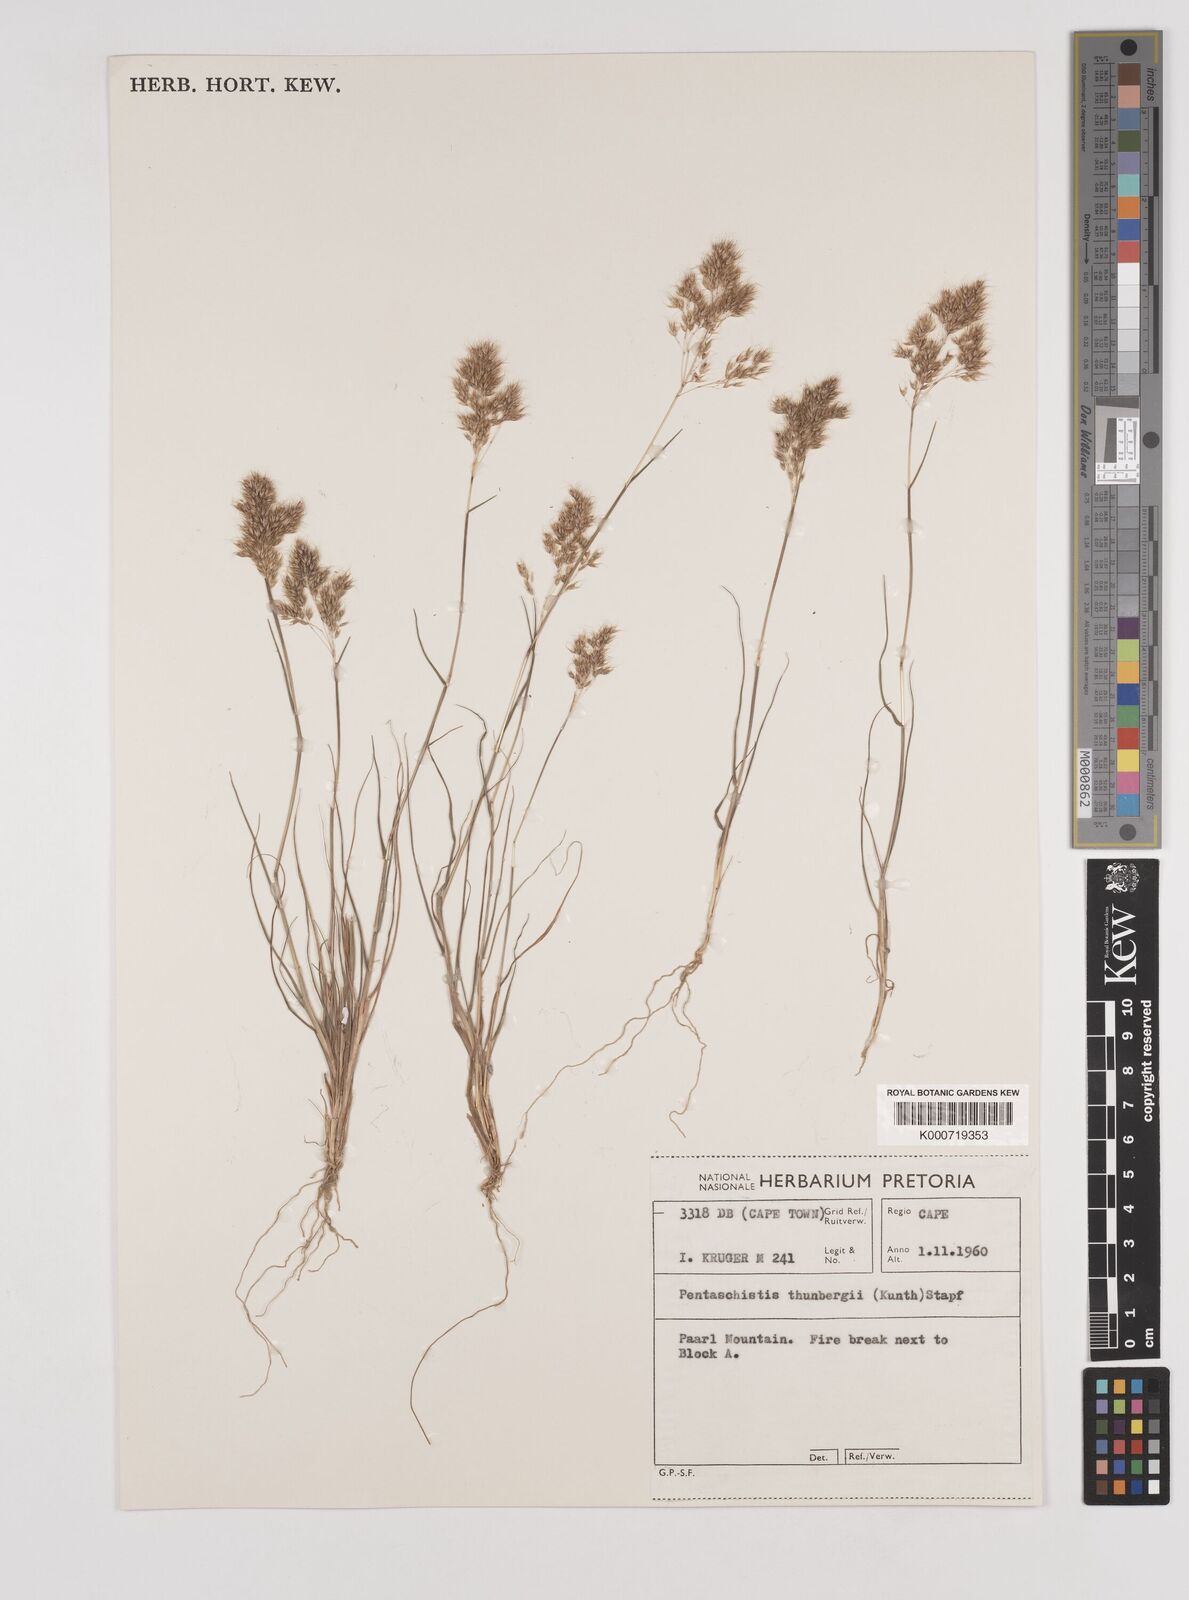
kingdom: Plantae
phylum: Tracheophyta
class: Liliopsida
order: Poales
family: Poaceae
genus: Pentameris
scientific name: Pentameris triseta
